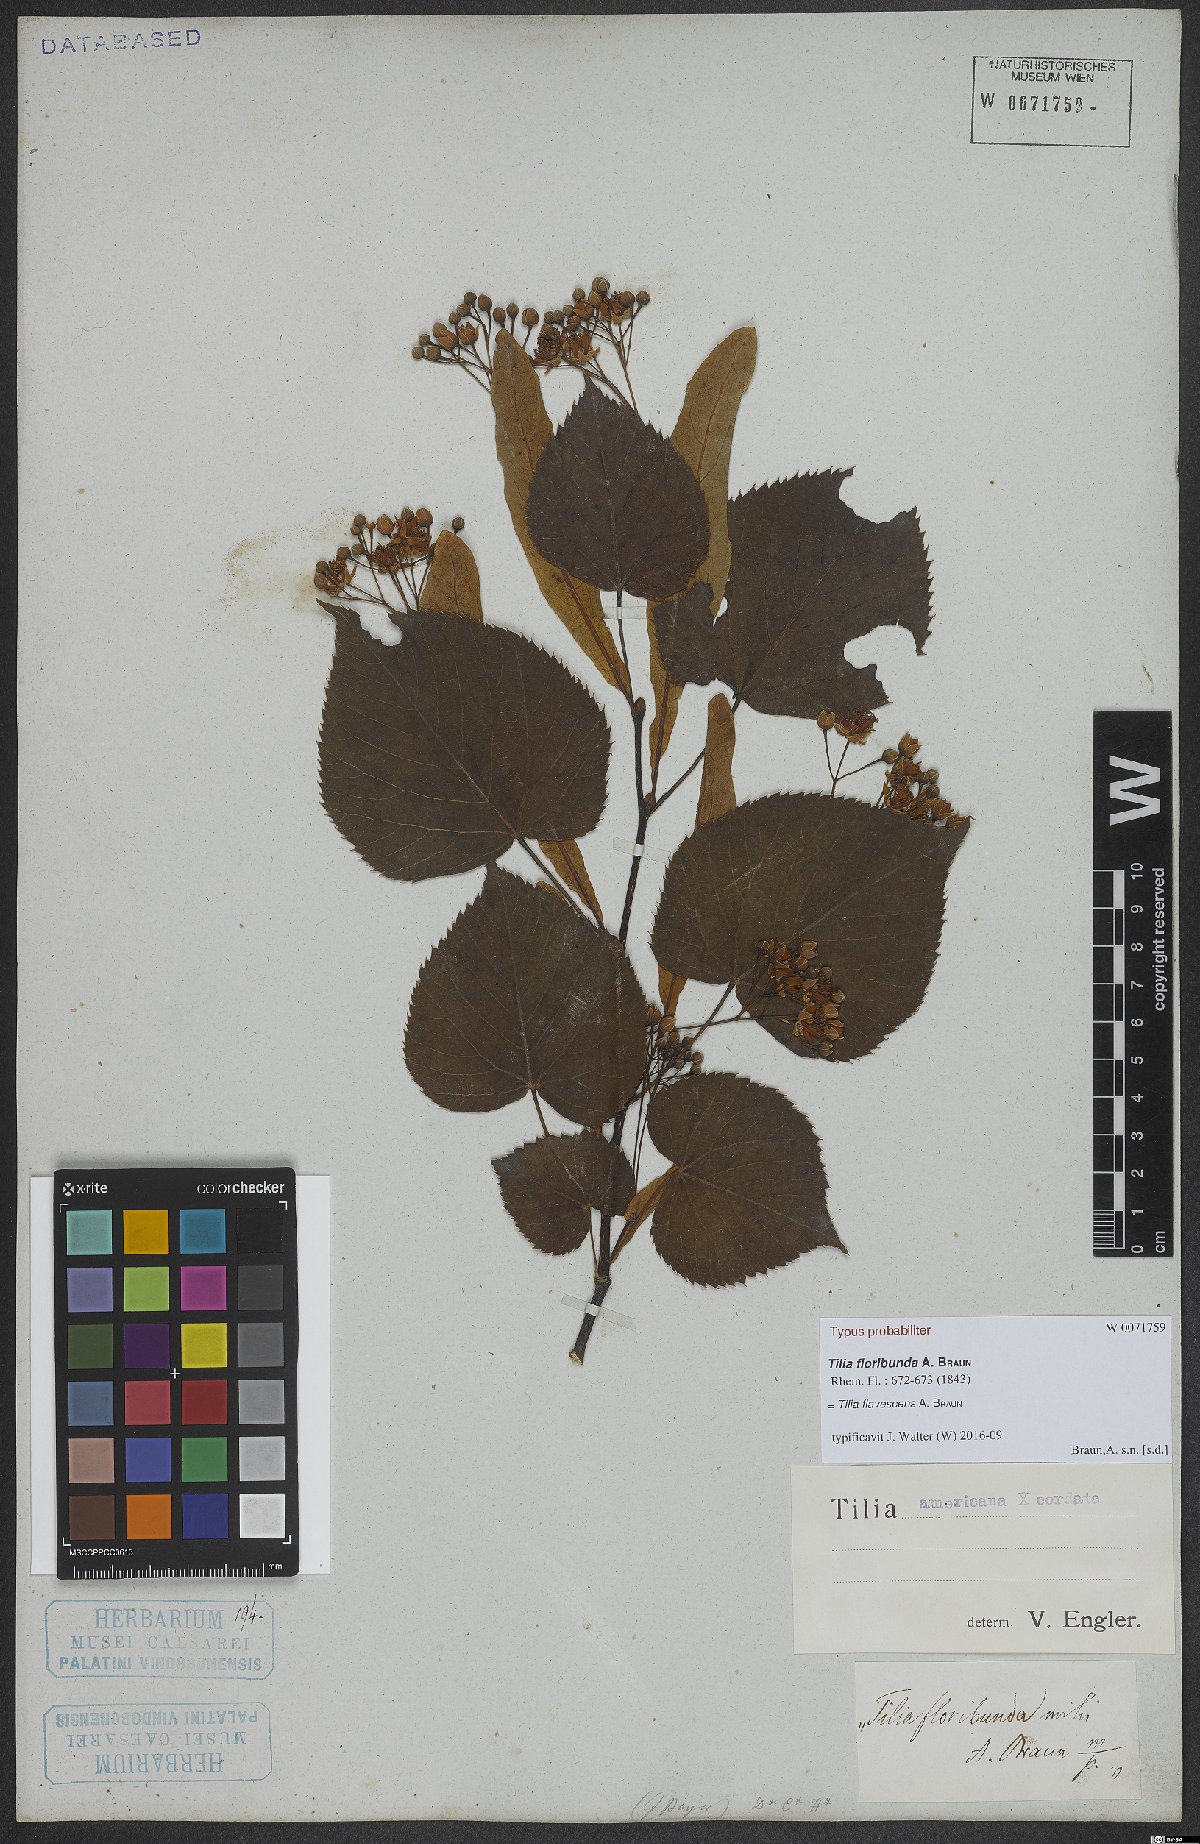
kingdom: Plantae
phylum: Tracheophyta
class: Magnoliopsida
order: Malvales
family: Tiliaceae
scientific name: Tiliaceae
